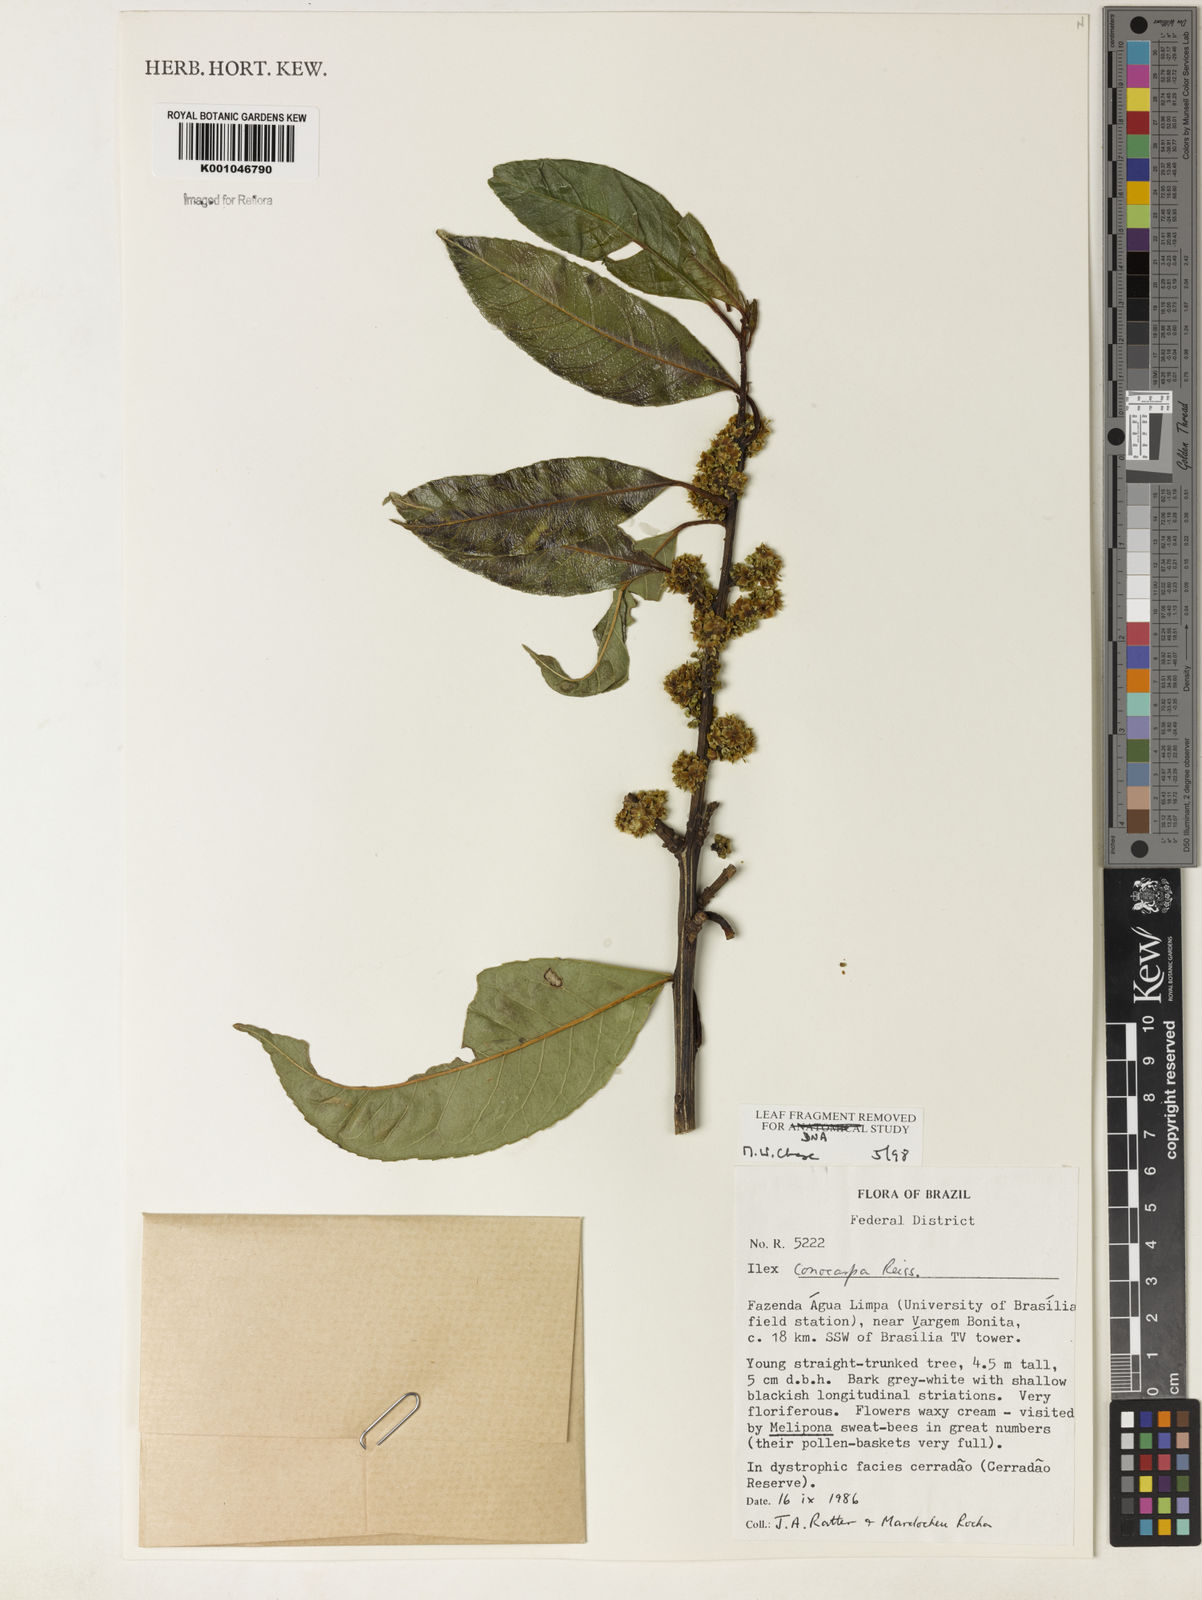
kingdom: Plantae
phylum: Tracheophyta
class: Magnoliopsida
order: Aquifoliales
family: Aquifoliaceae
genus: Ilex
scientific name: Ilex conocarpa
